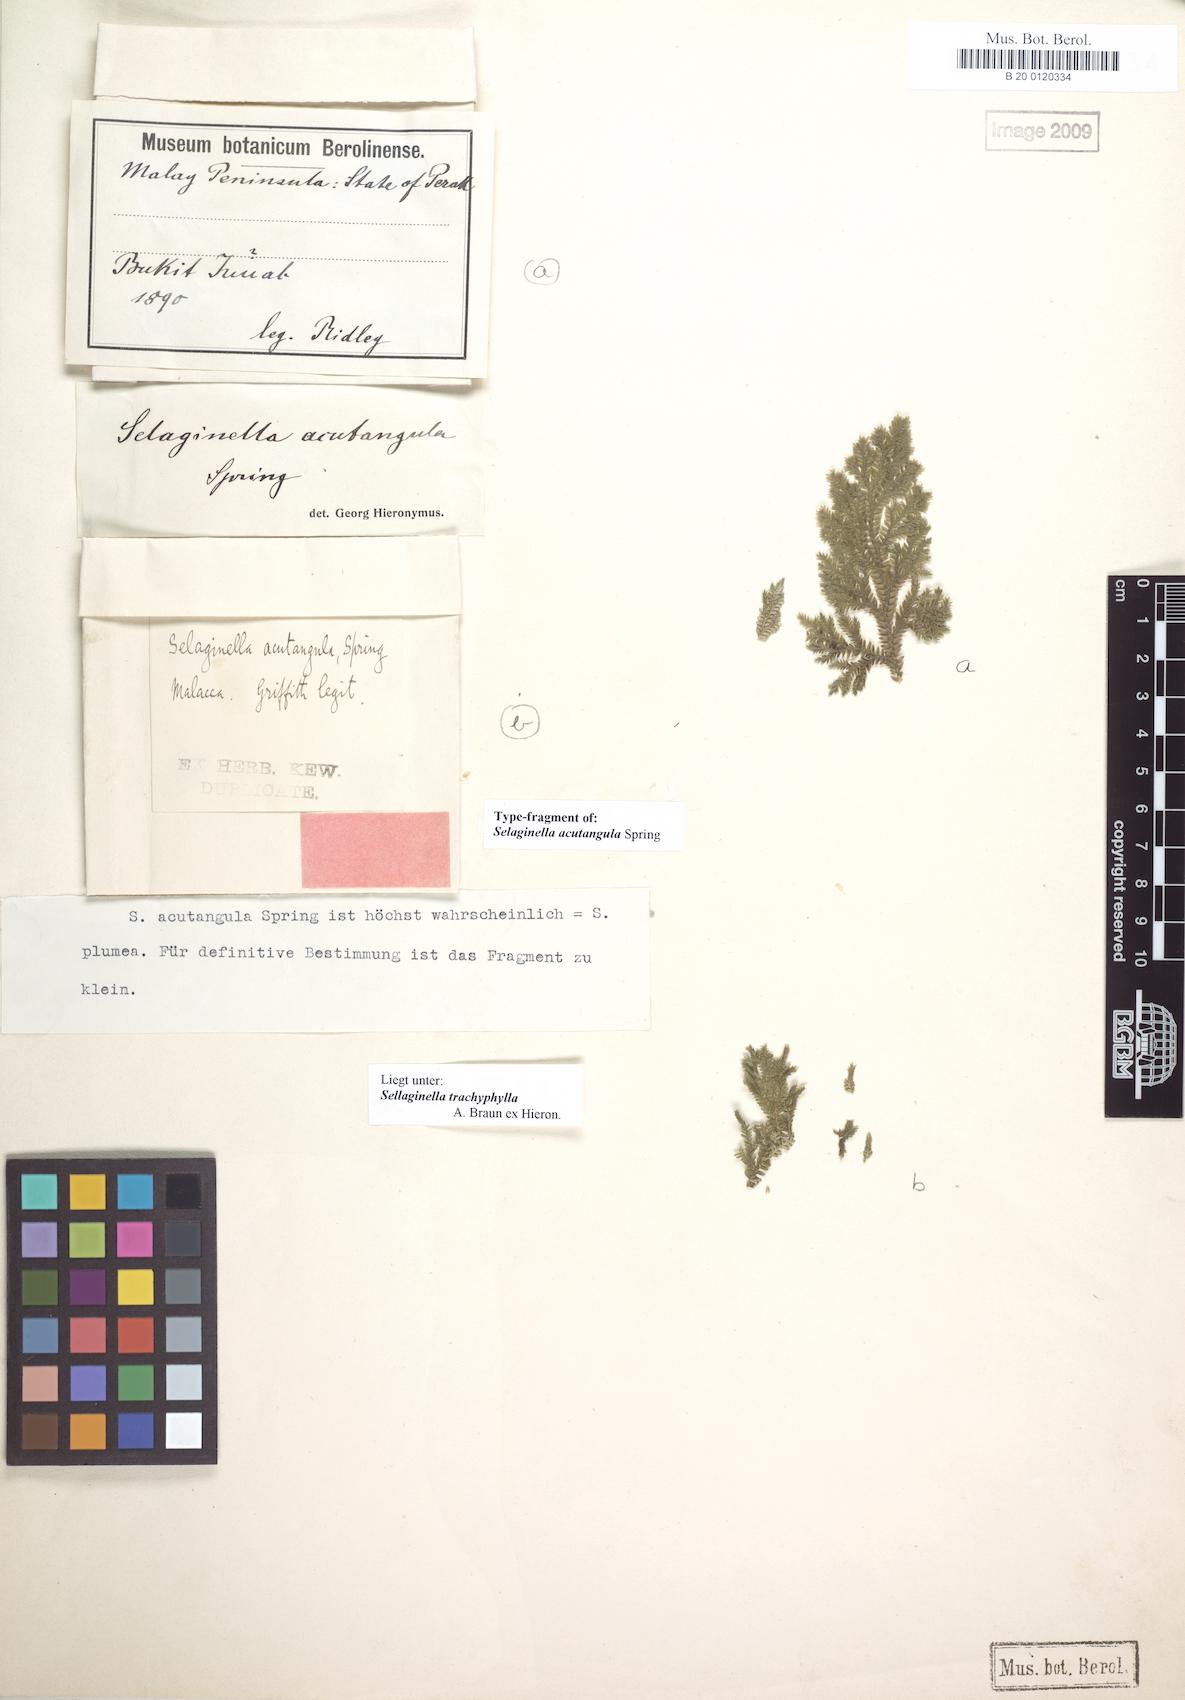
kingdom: Plantae
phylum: Tracheophyta
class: Lycopodiopsida
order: Selaginellales
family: Selaginellaceae
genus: Selaginella
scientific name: Selaginella trachyphylla
